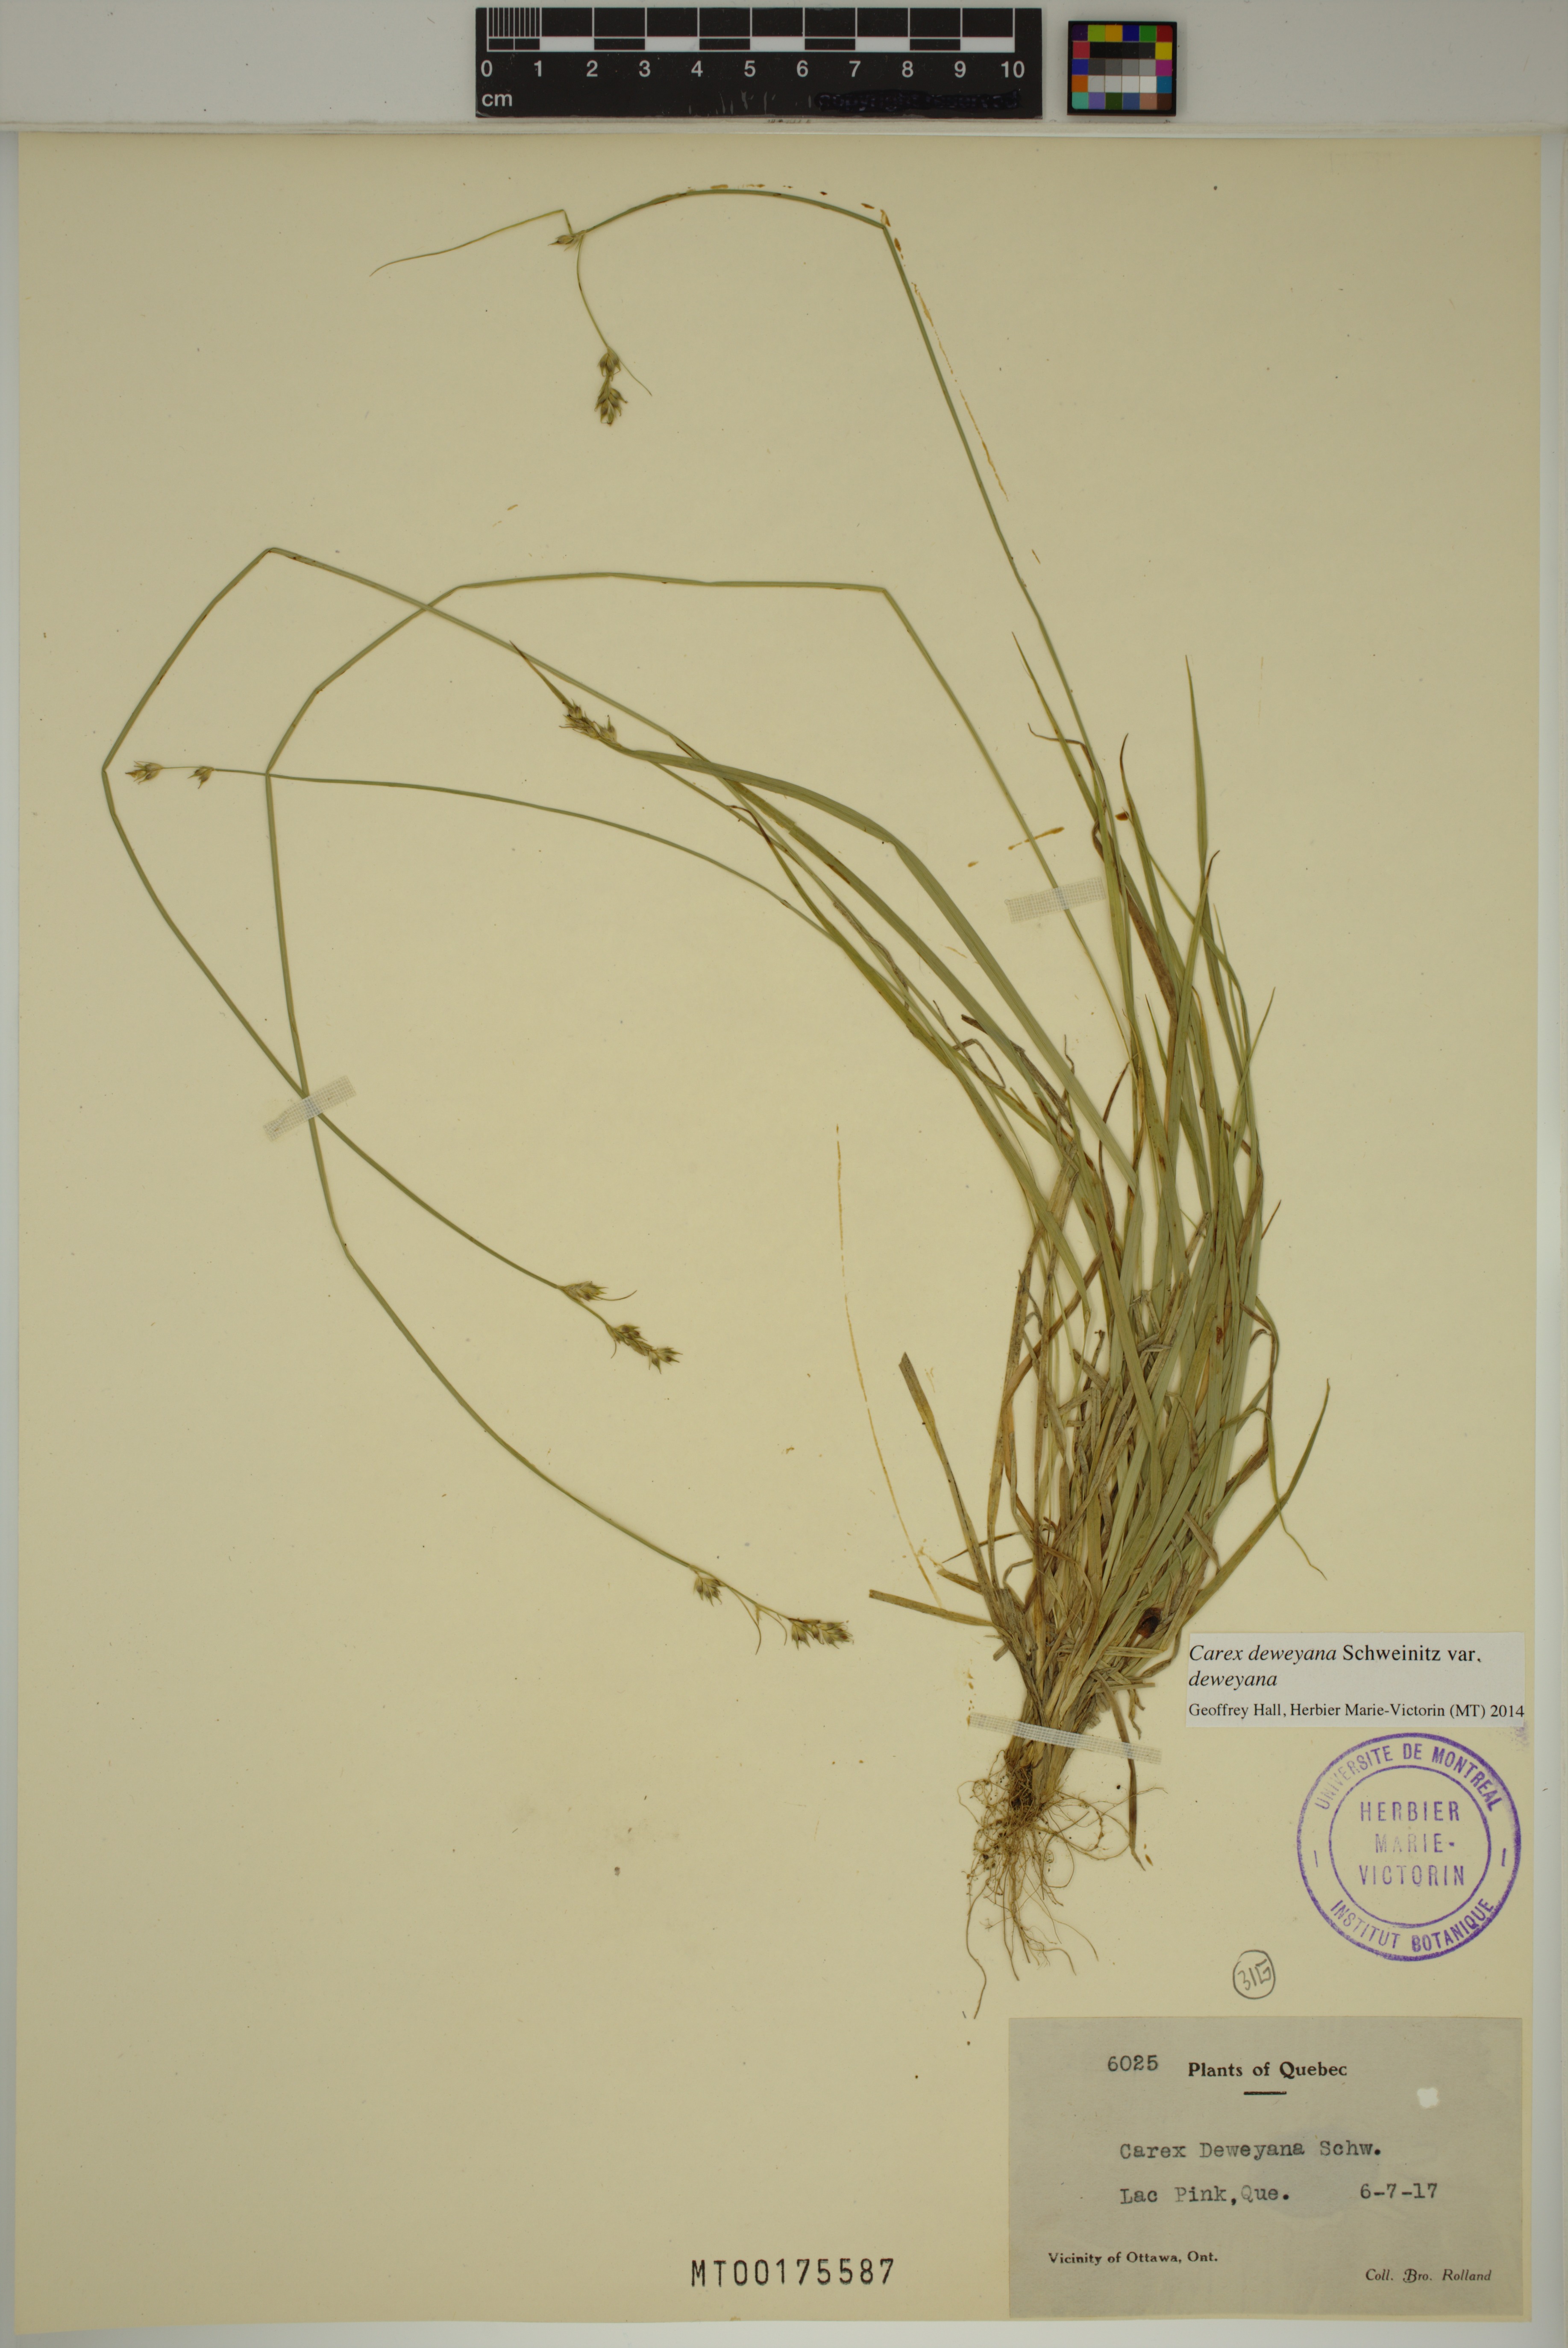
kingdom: Plantae
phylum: Tracheophyta
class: Liliopsida
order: Poales
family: Cyperaceae
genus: Carex
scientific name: Carex deweyana
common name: Dewey's sedge
